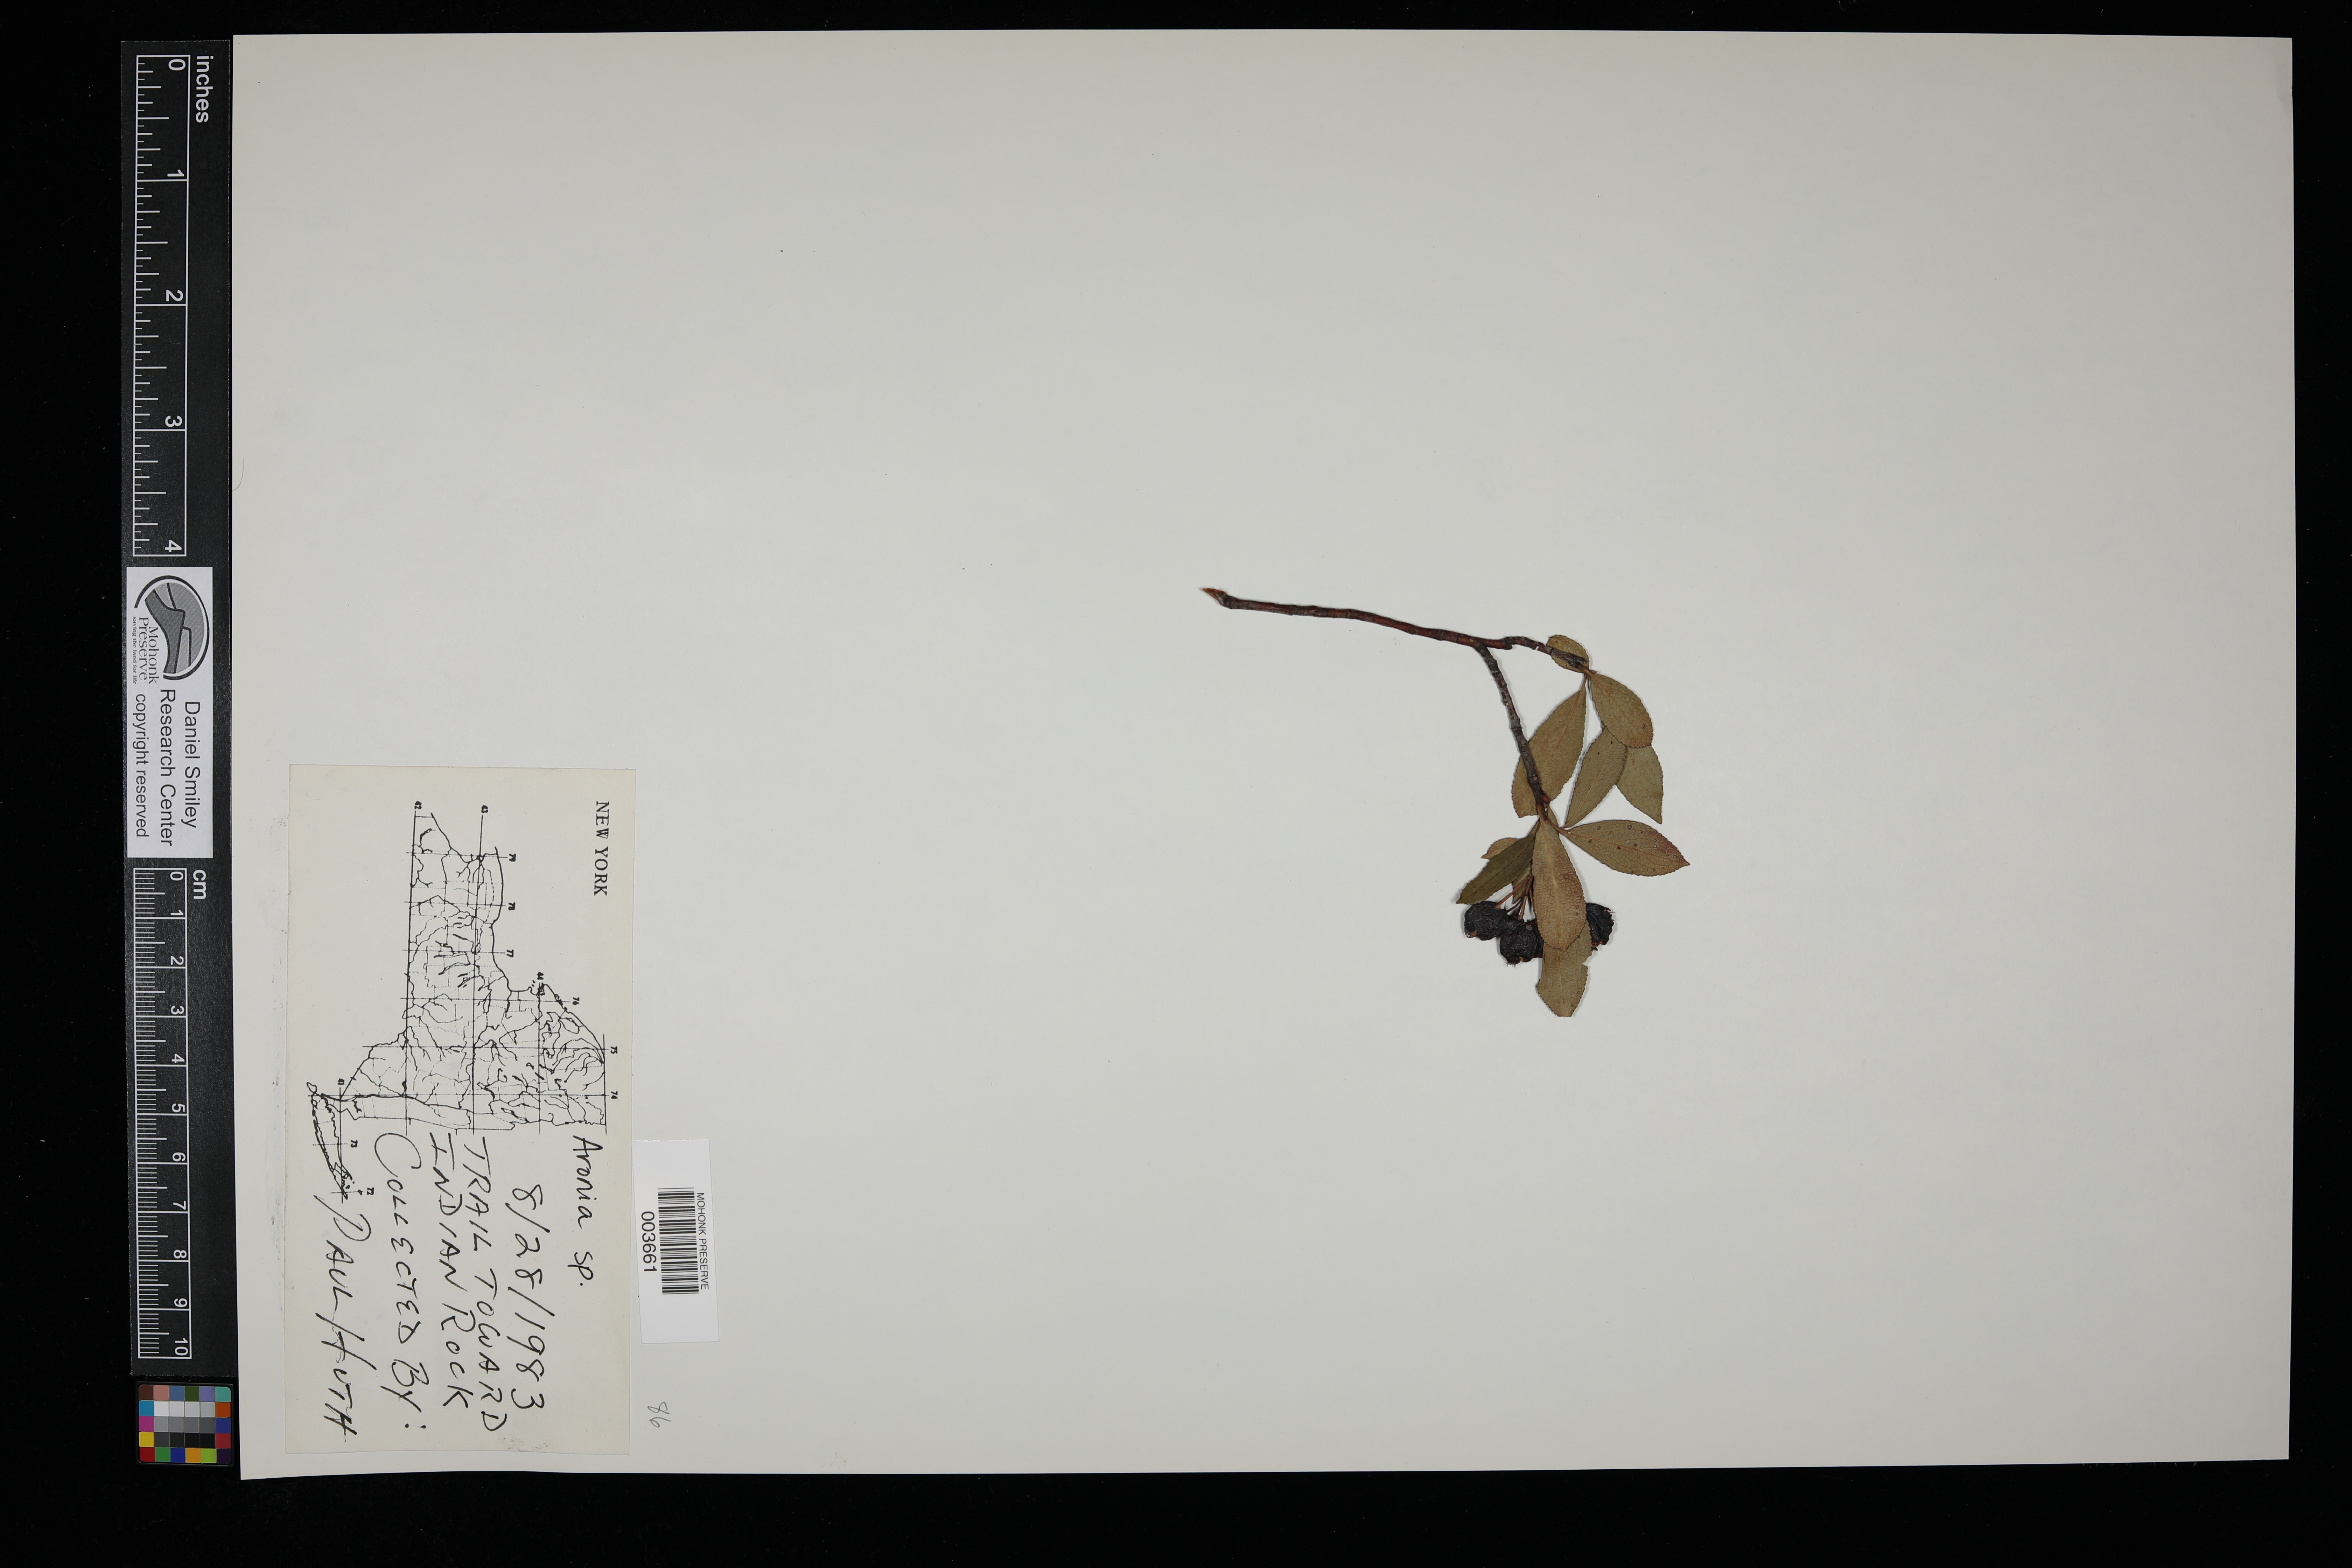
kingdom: Plantae
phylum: Tracheophyta
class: Magnoliopsida
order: Rosales
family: Rosaceae
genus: Aronia
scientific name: Aronia
